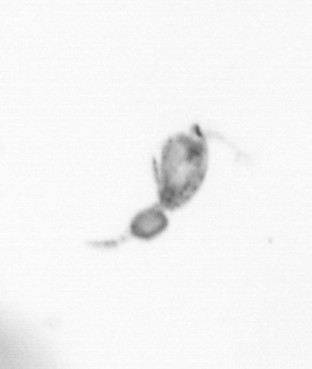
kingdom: Animalia
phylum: Arthropoda
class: Copepoda
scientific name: Copepoda
